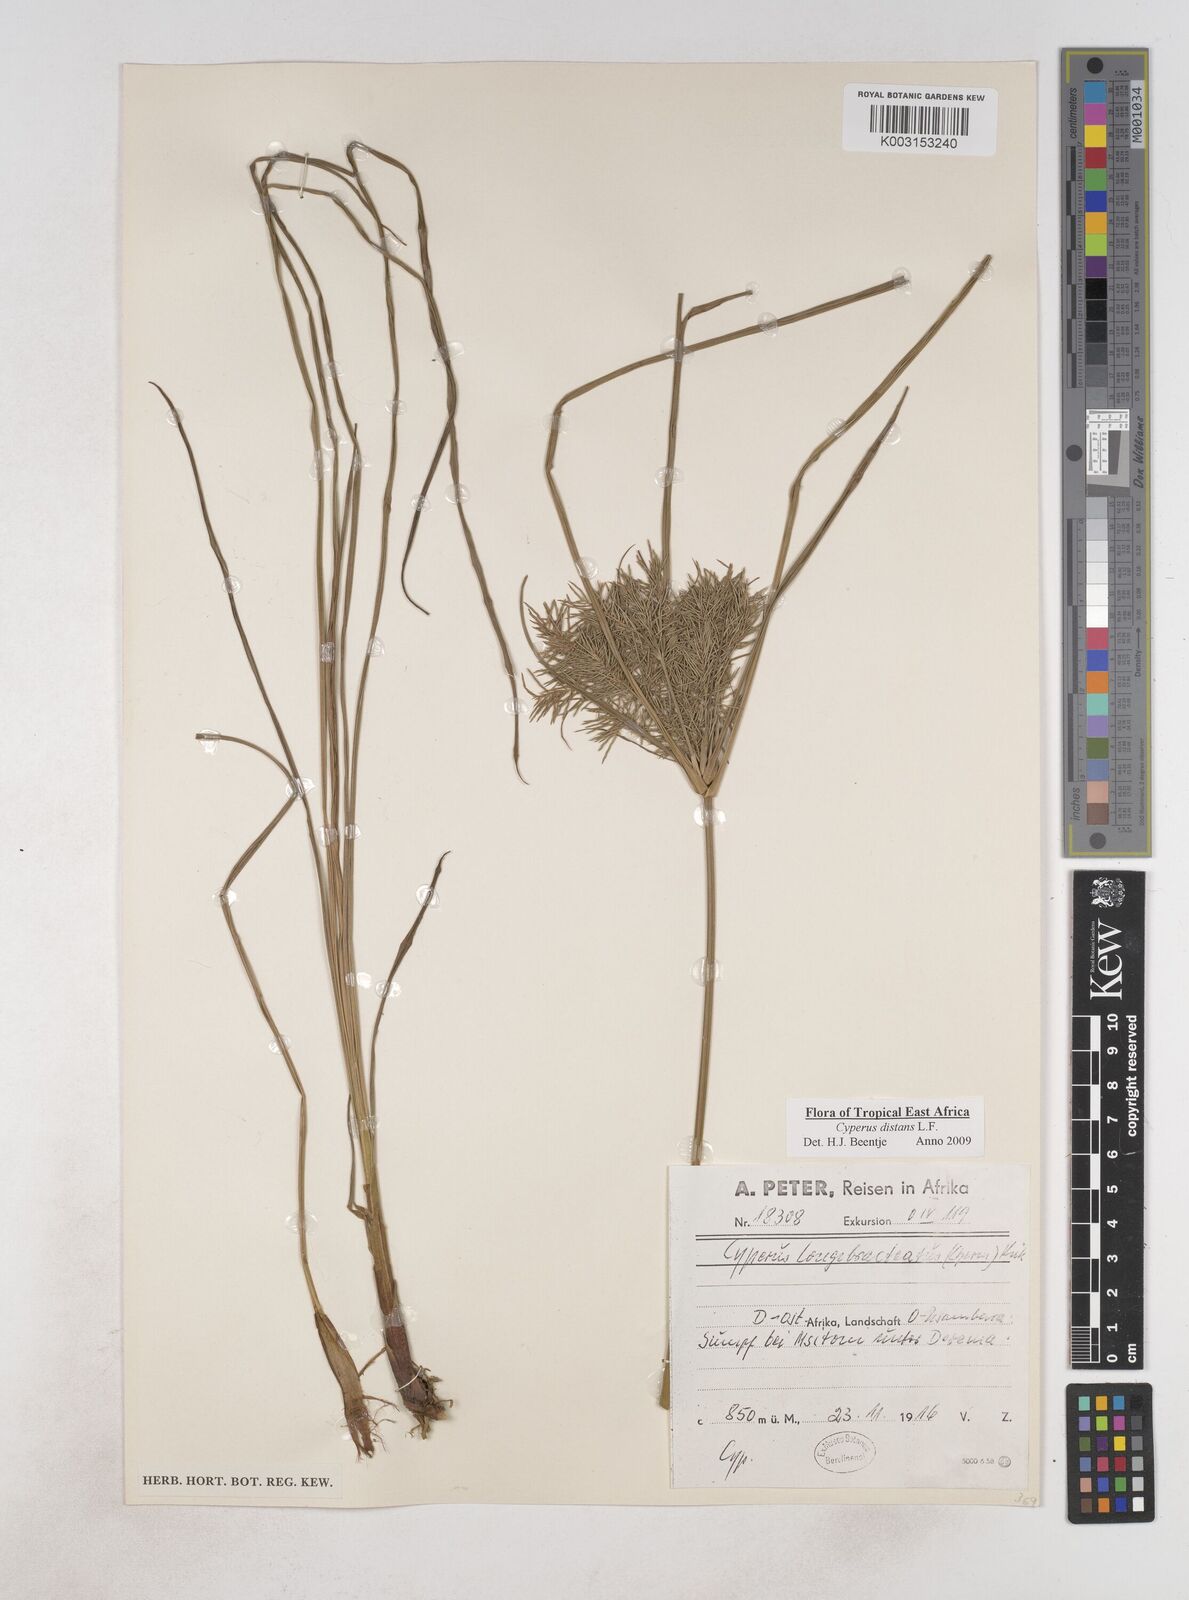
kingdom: Plantae
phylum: Tracheophyta
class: Liliopsida
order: Poales
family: Cyperaceae
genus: Cyperus
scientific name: Cyperus distans
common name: Slender cyperus
